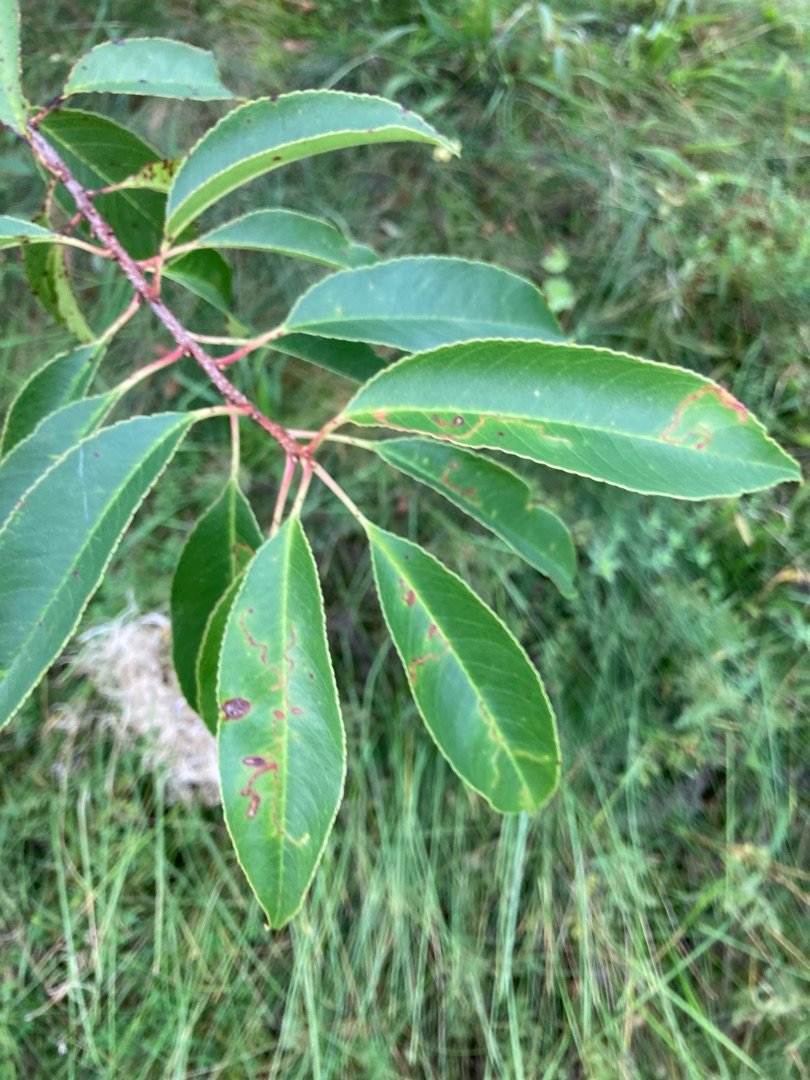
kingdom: Plantae
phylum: Tracheophyta
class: Magnoliopsida
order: Rosales
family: Rosaceae
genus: Prunus
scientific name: Prunus serotina
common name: Glansbladet hæg
